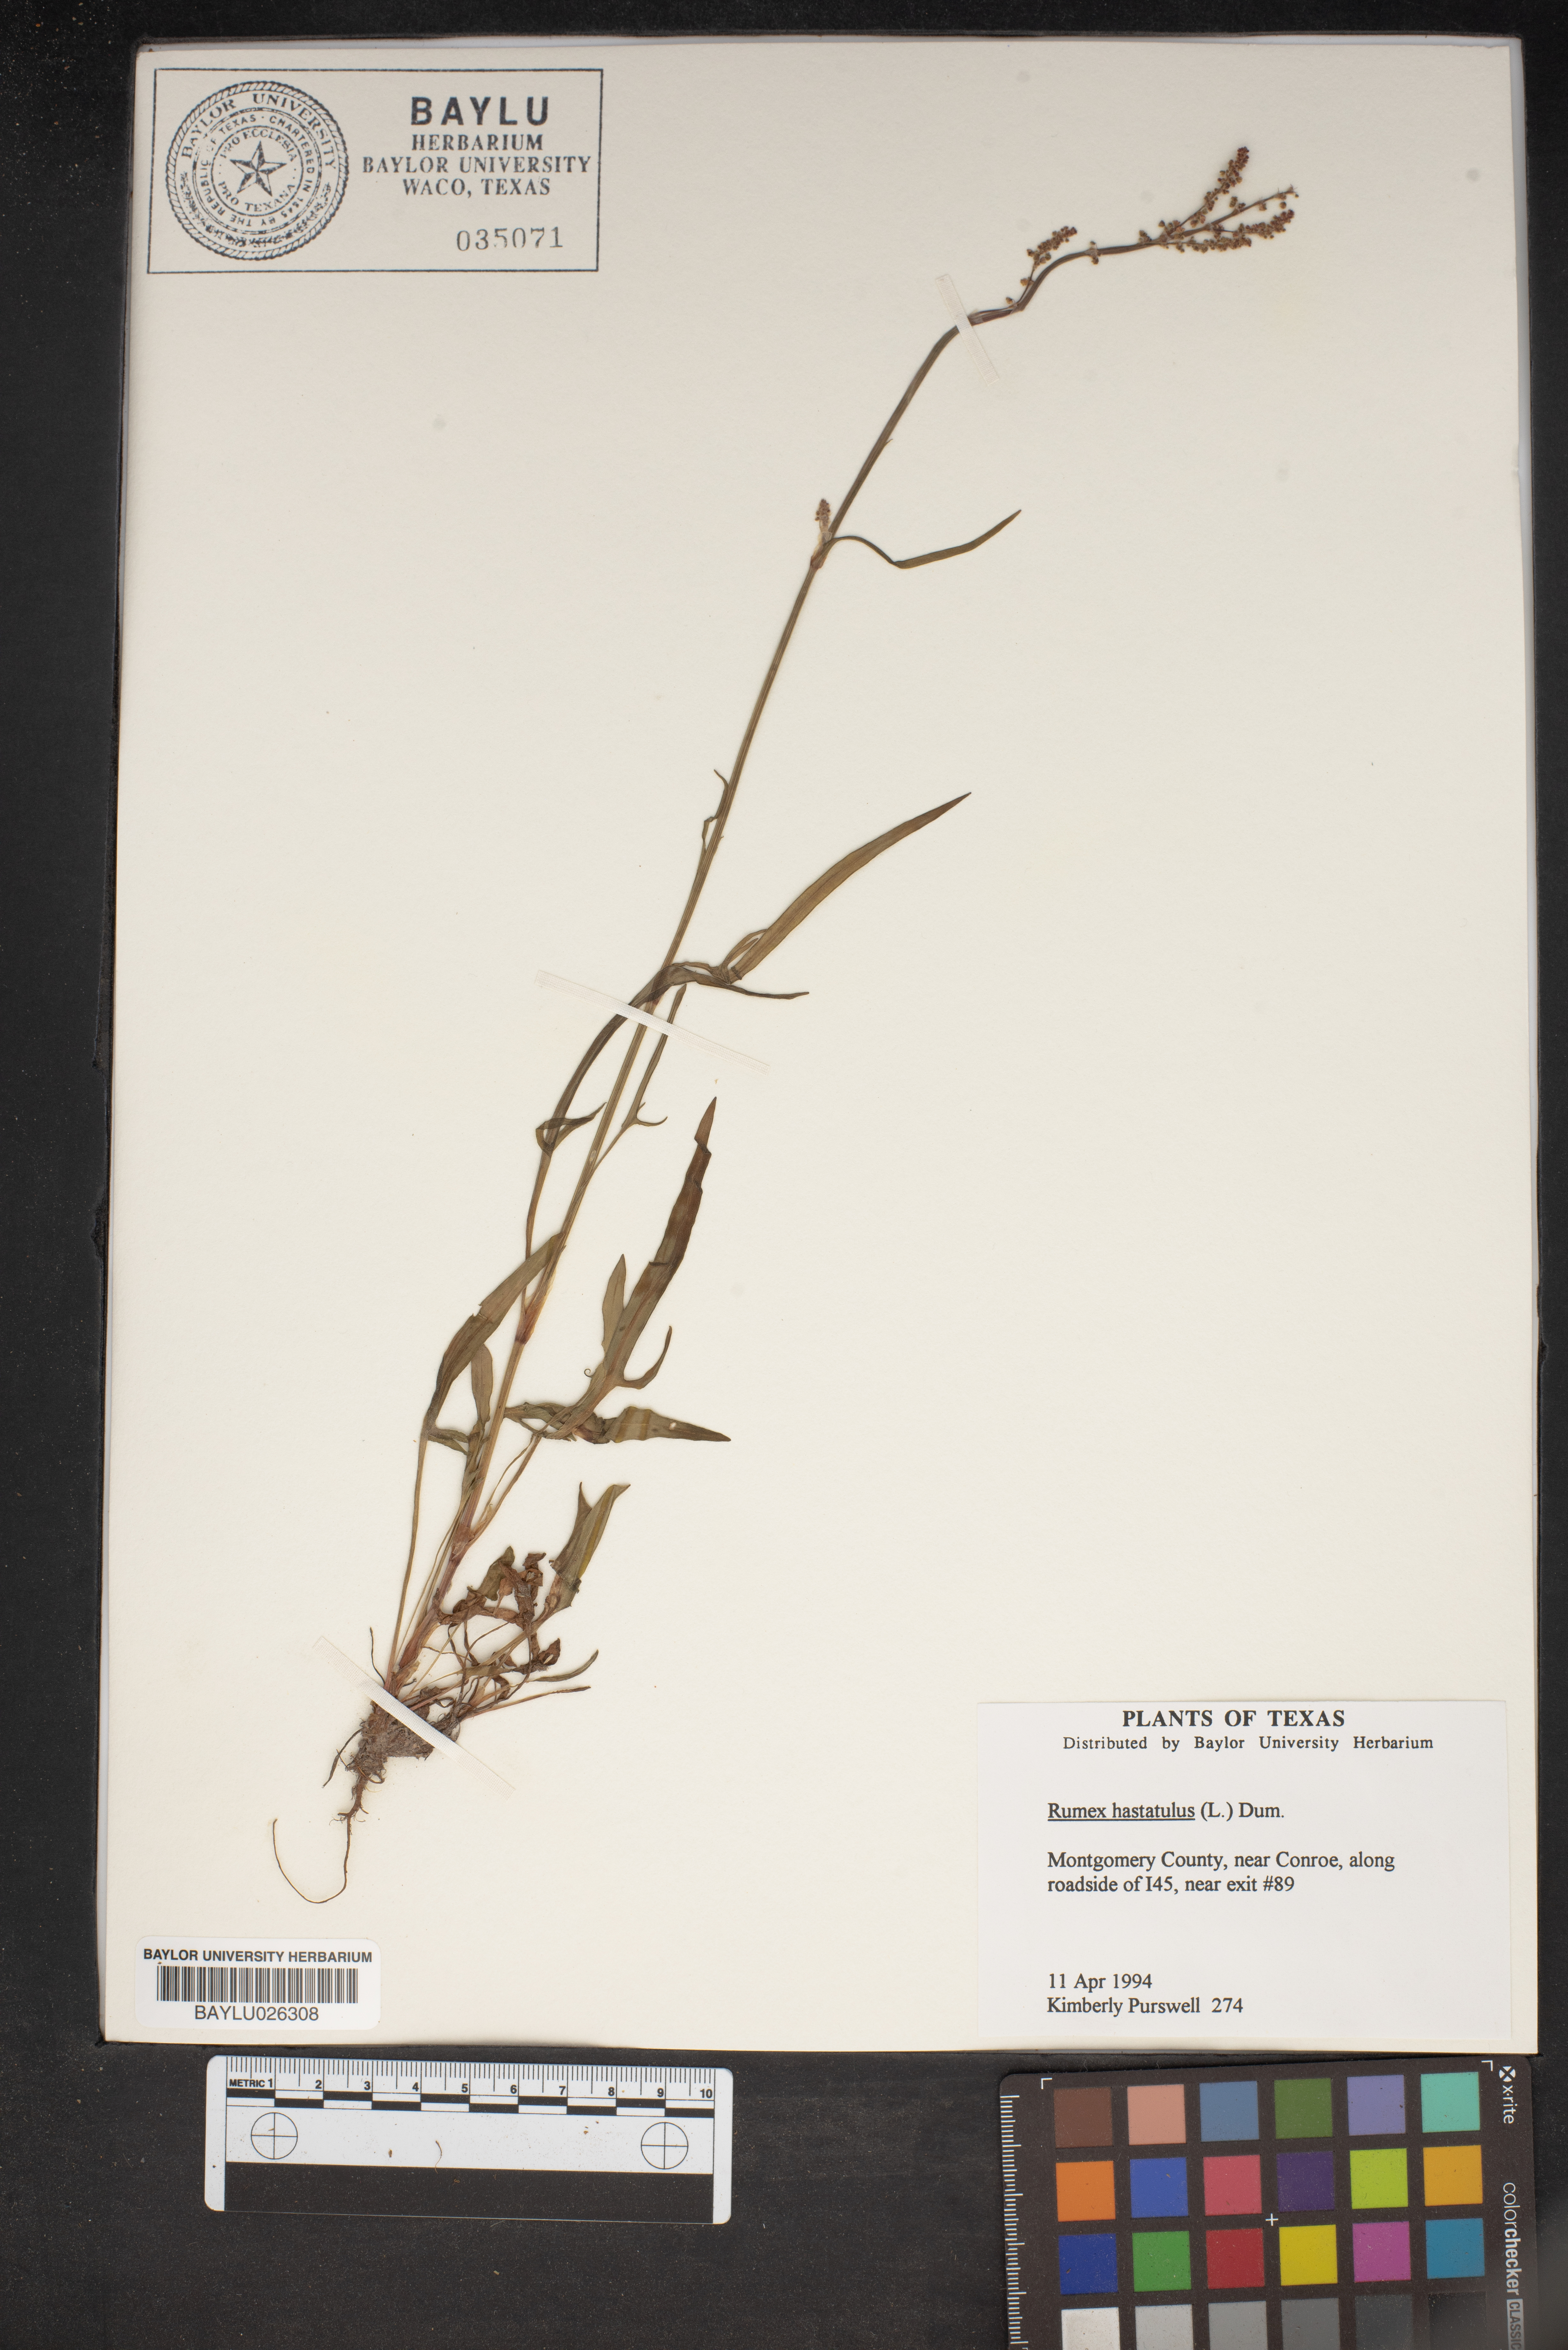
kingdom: Plantae
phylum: Tracheophyta
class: Magnoliopsida
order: Caryophyllales
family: Polygonaceae
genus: Rumex
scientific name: Rumex hastatulus
